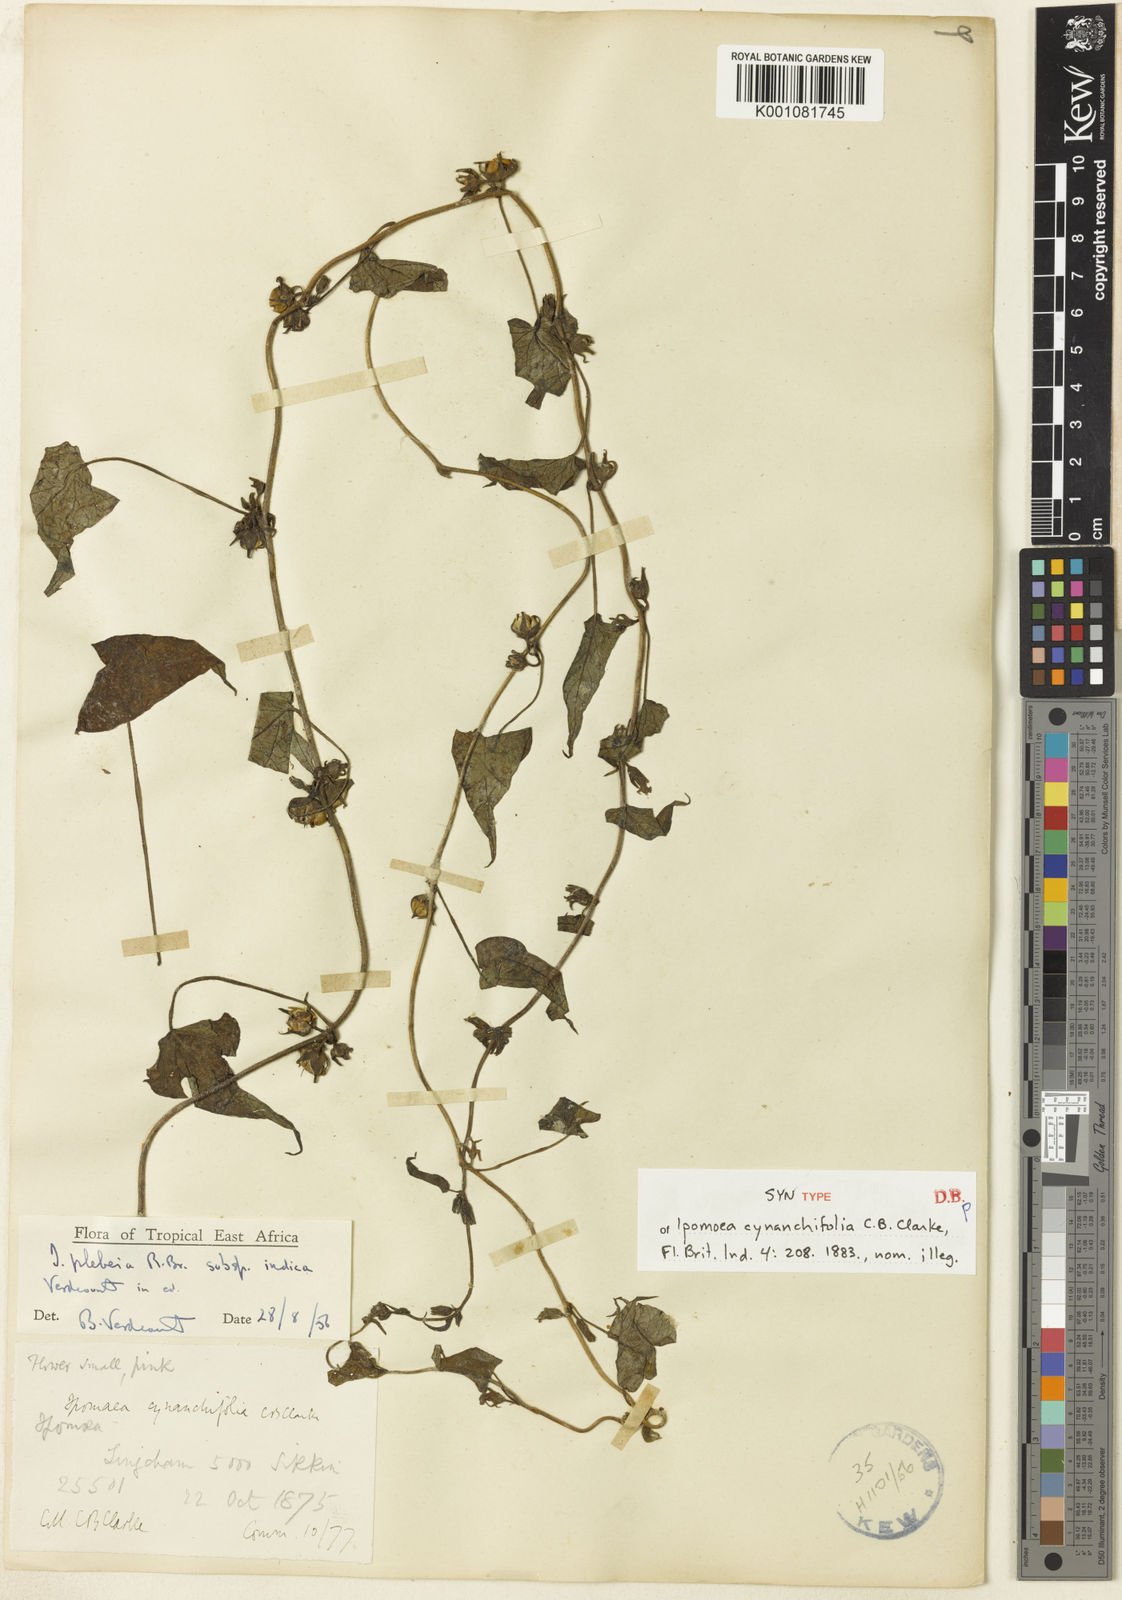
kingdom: Plantae
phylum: Tracheophyta
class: Magnoliopsida
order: Solanales
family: Convolvulaceae
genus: Ipomoea
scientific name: Ipomoea biflora
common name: Bellvine
